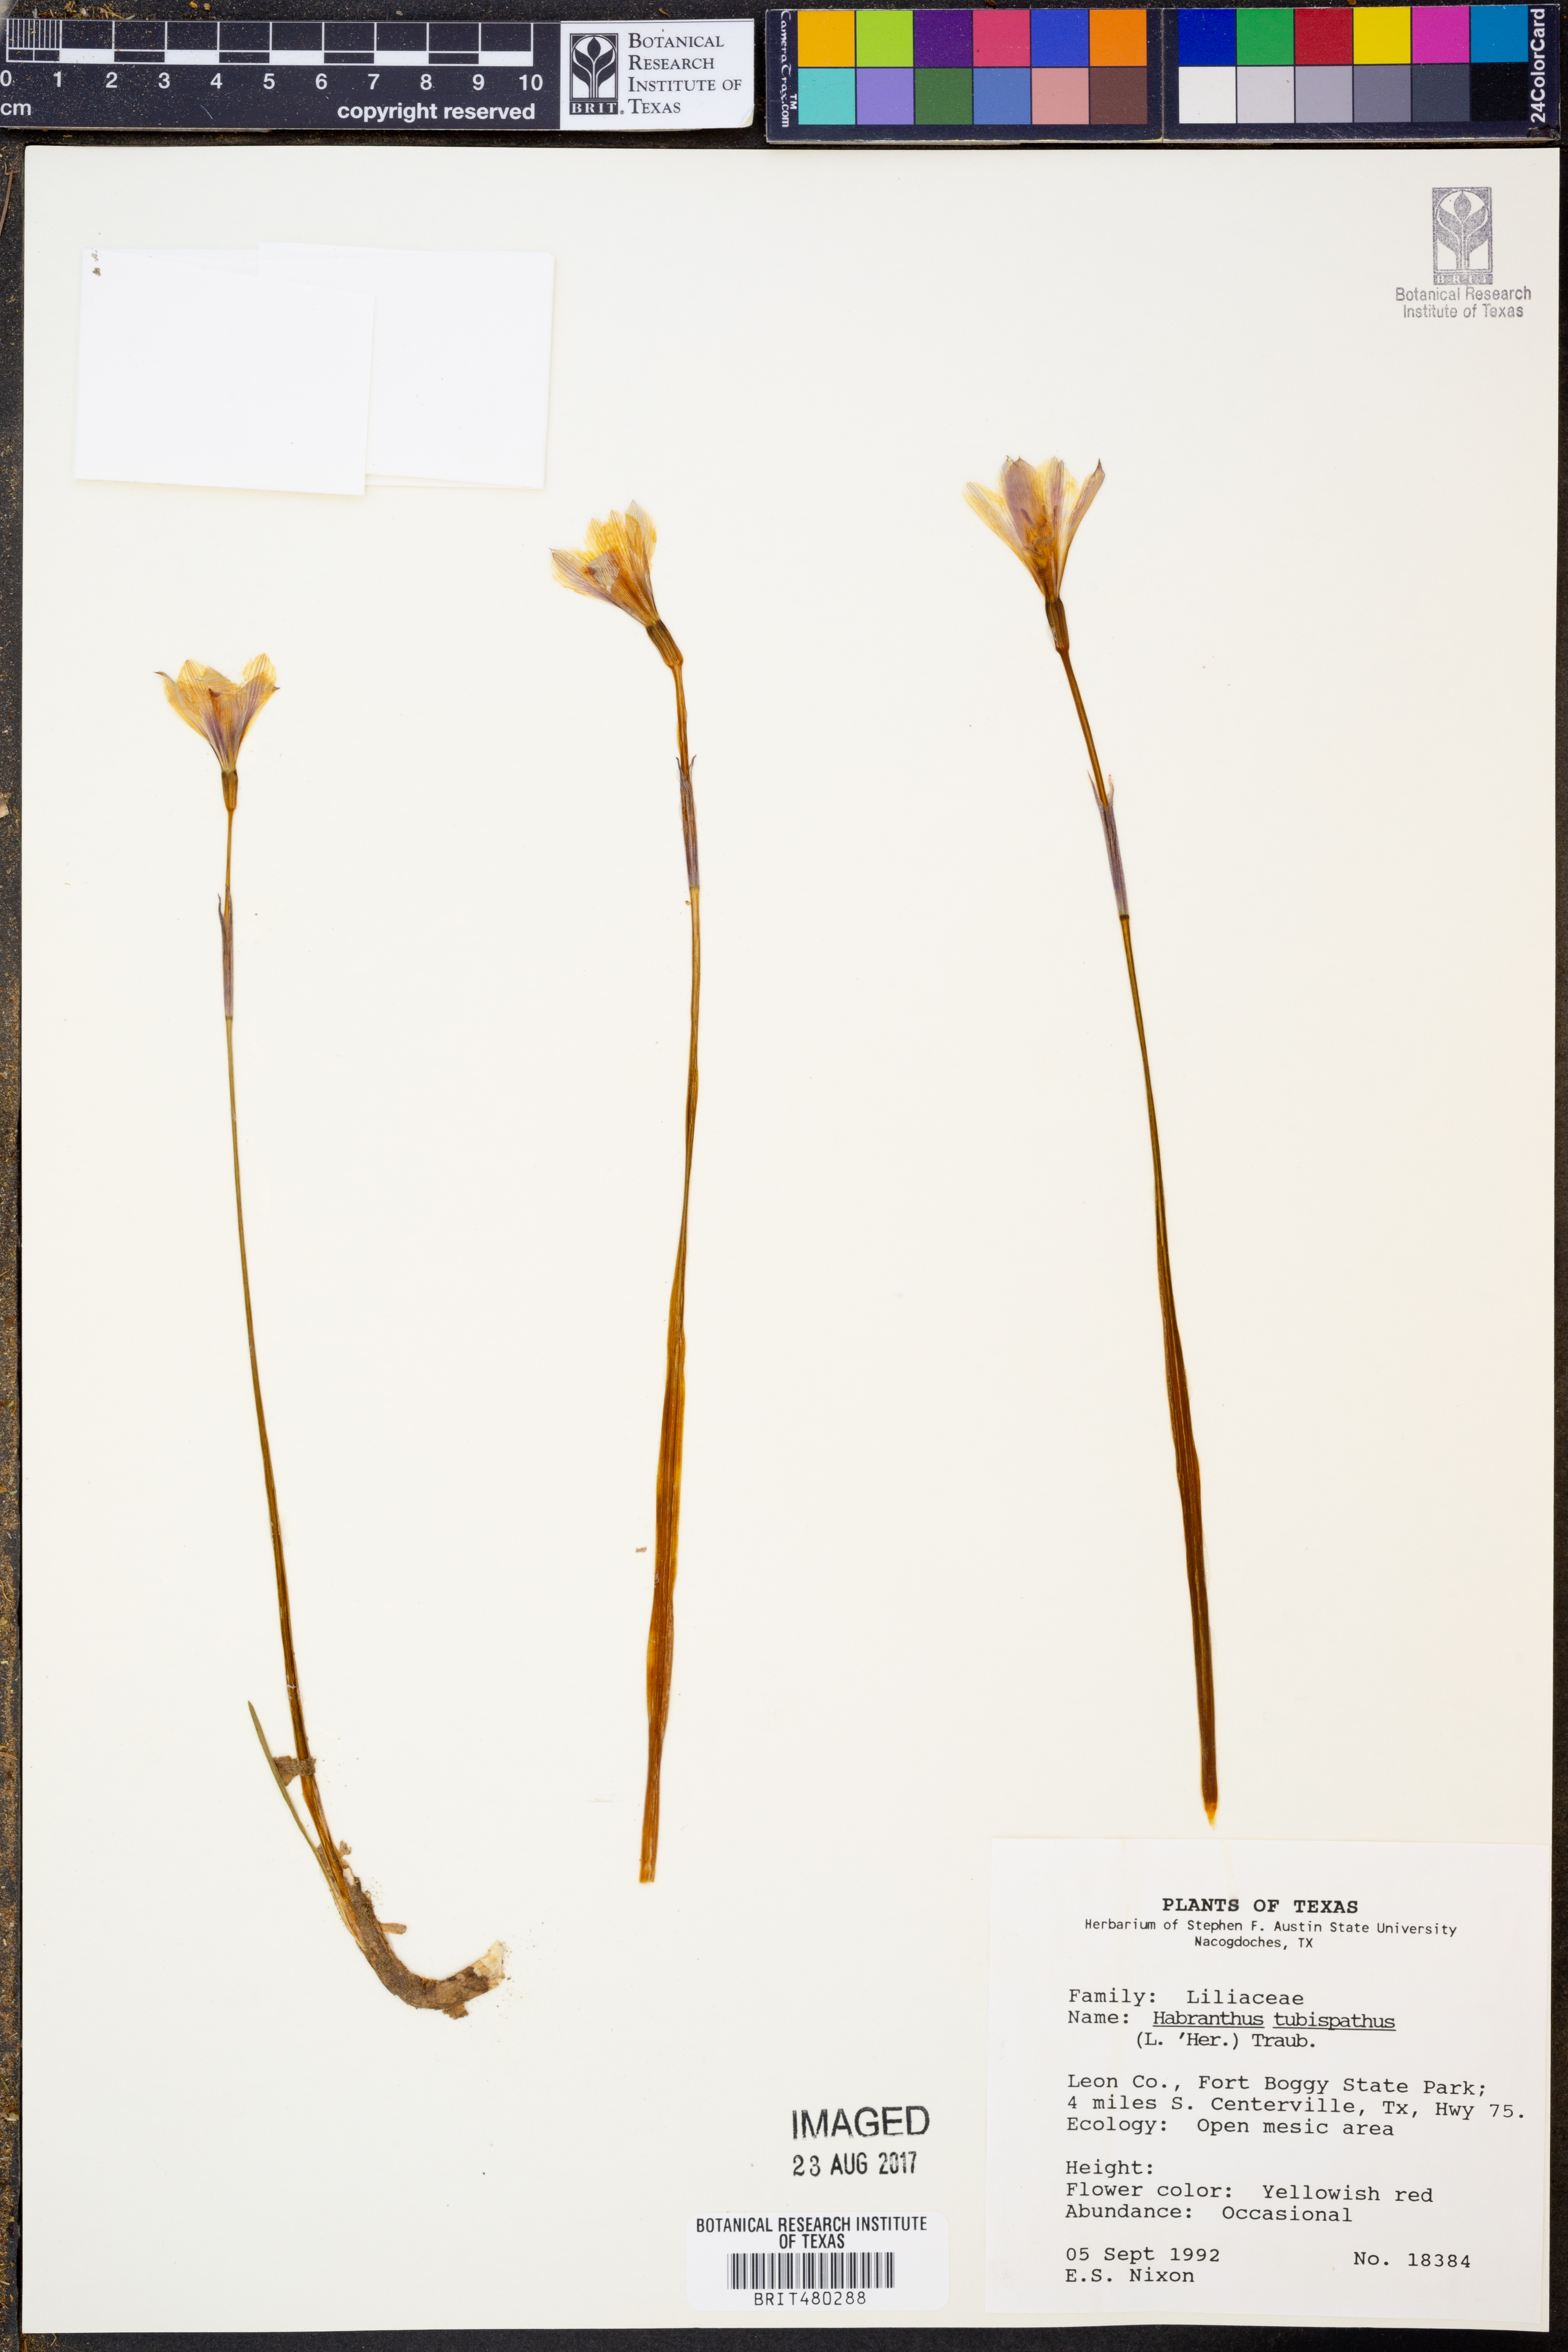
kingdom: Plantae
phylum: Tracheophyta
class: Liliopsida
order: Asparagales
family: Amaryllidaceae
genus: Zephyranthes
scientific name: Zephyranthes tubispatha
